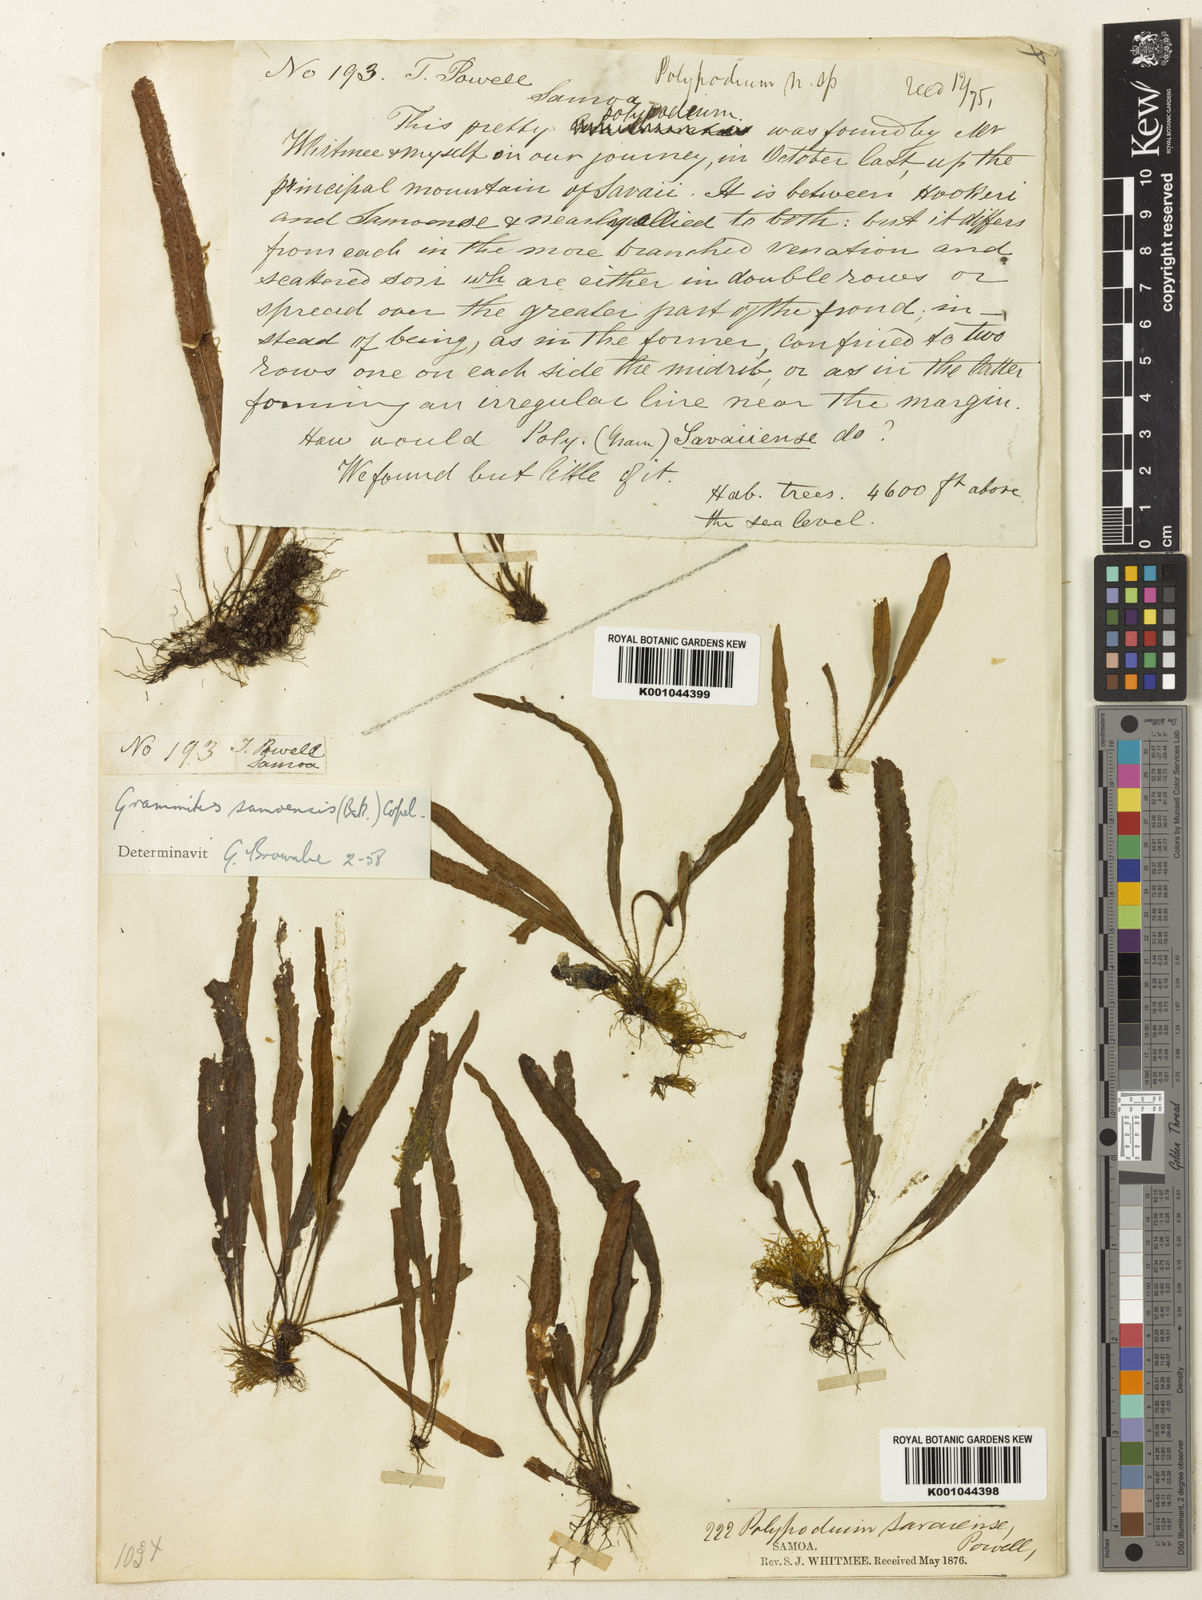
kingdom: Plantae
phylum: Tracheophyta
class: Polypodiopsida
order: Polypodiales
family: Polypodiaceae
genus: Archigrammitis
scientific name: Archigrammitis samoensis
